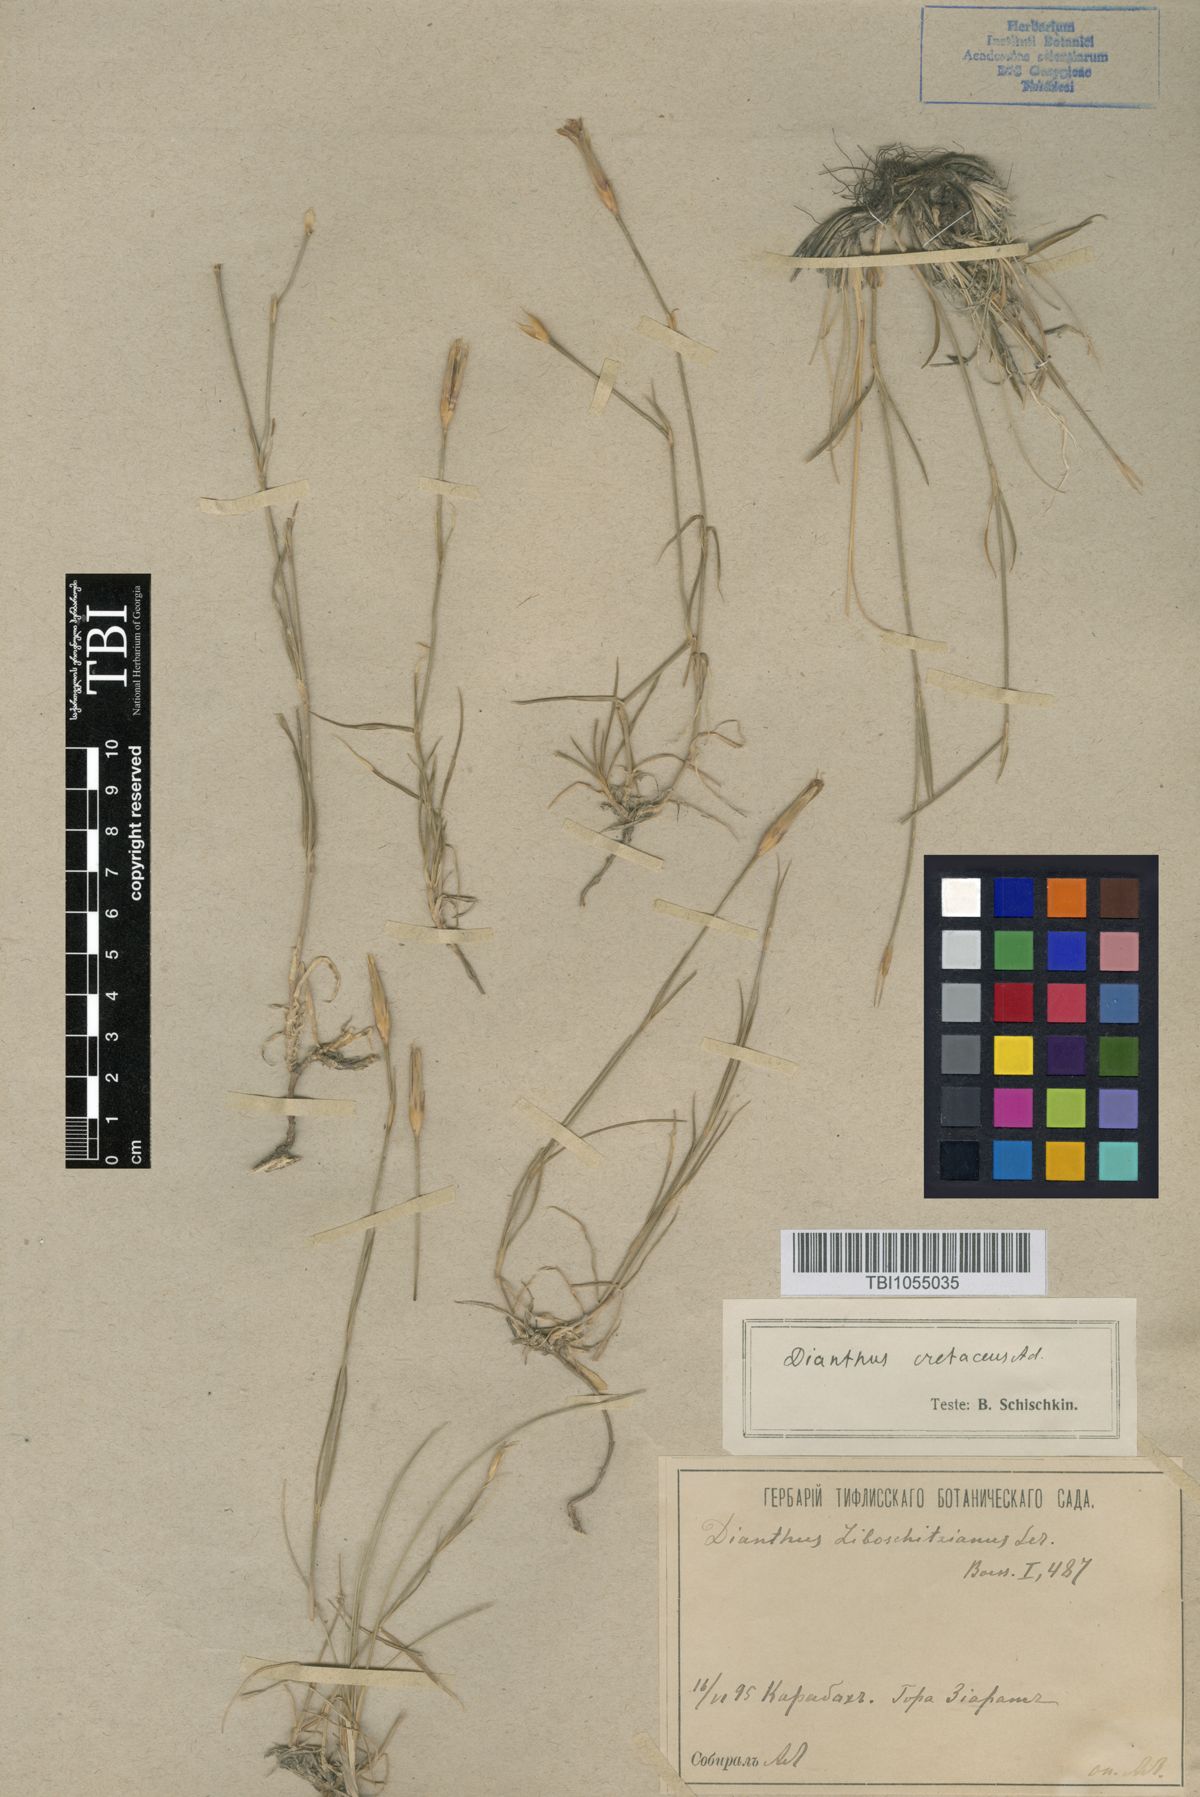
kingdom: Plantae
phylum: Tracheophyta
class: Magnoliopsida
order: Caryophyllales
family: Caryophyllaceae
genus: Dianthus
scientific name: Dianthus cretaceus
